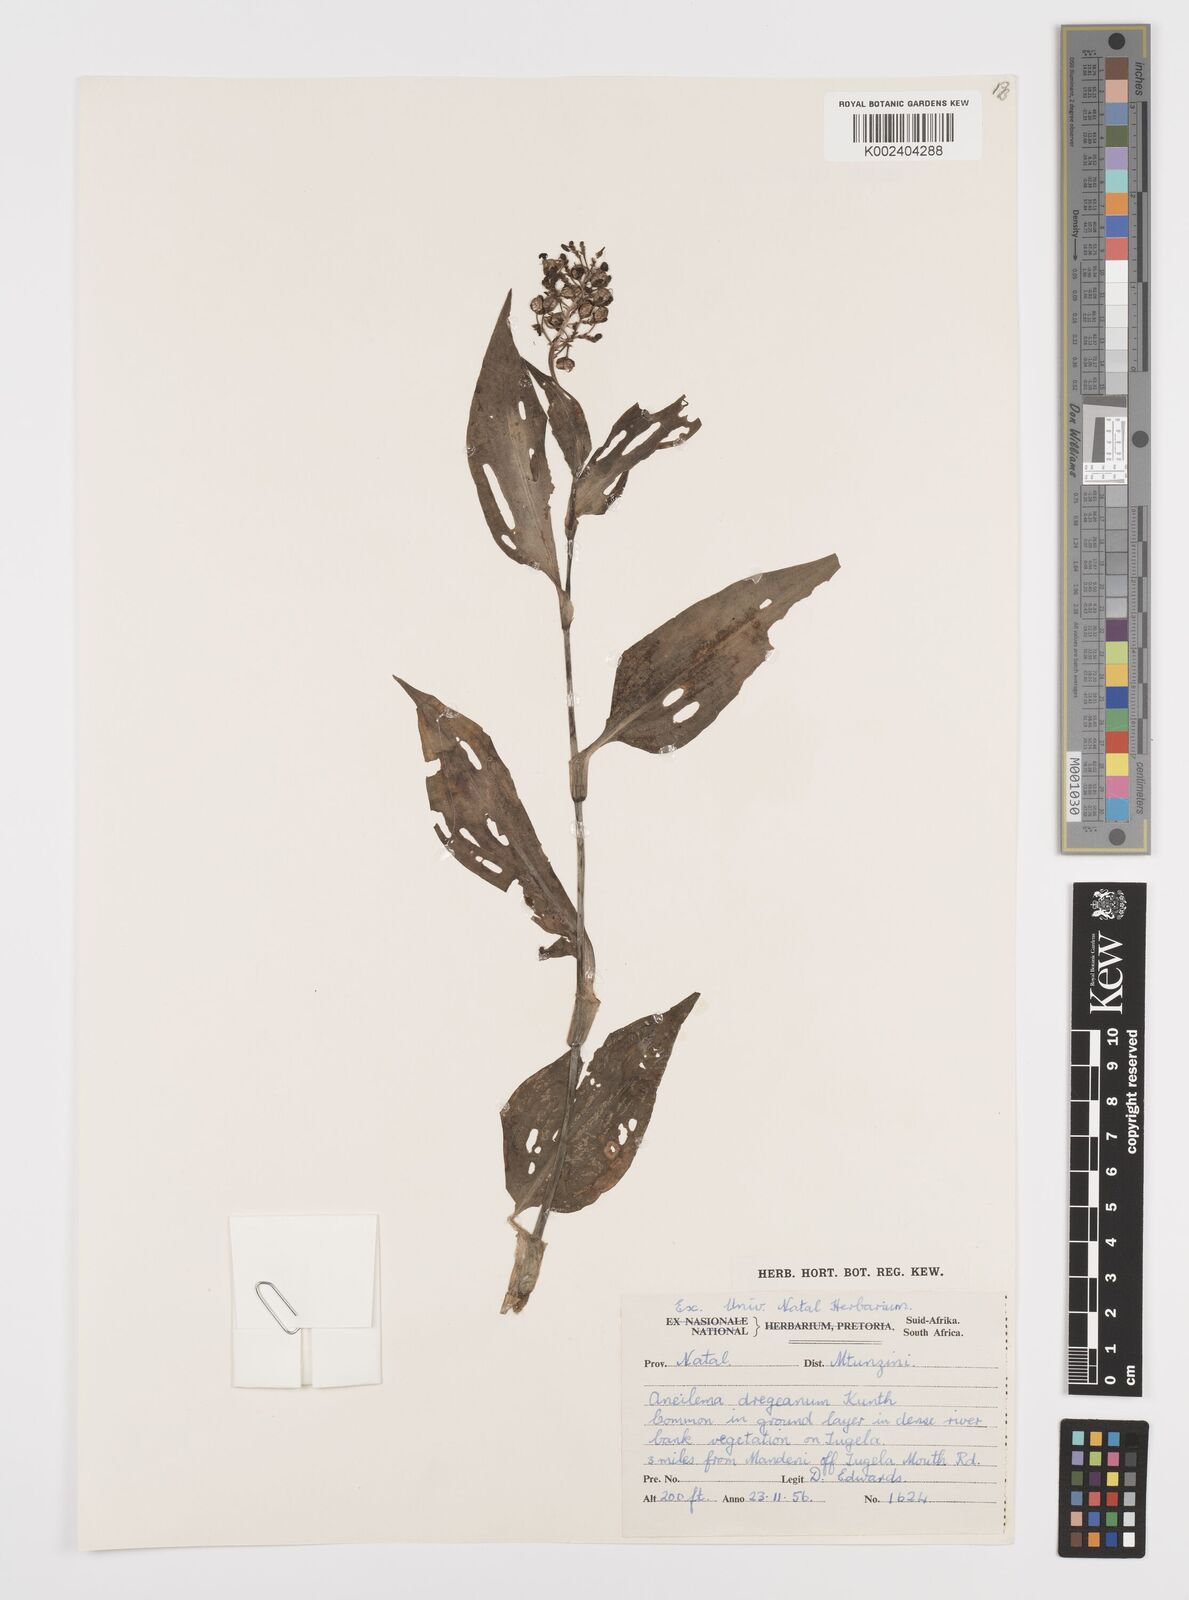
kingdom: Plantae
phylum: Tracheophyta
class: Liliopsida
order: Commelinales
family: Commelinaceae
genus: Aneilema
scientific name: Aneilema dregeanum
